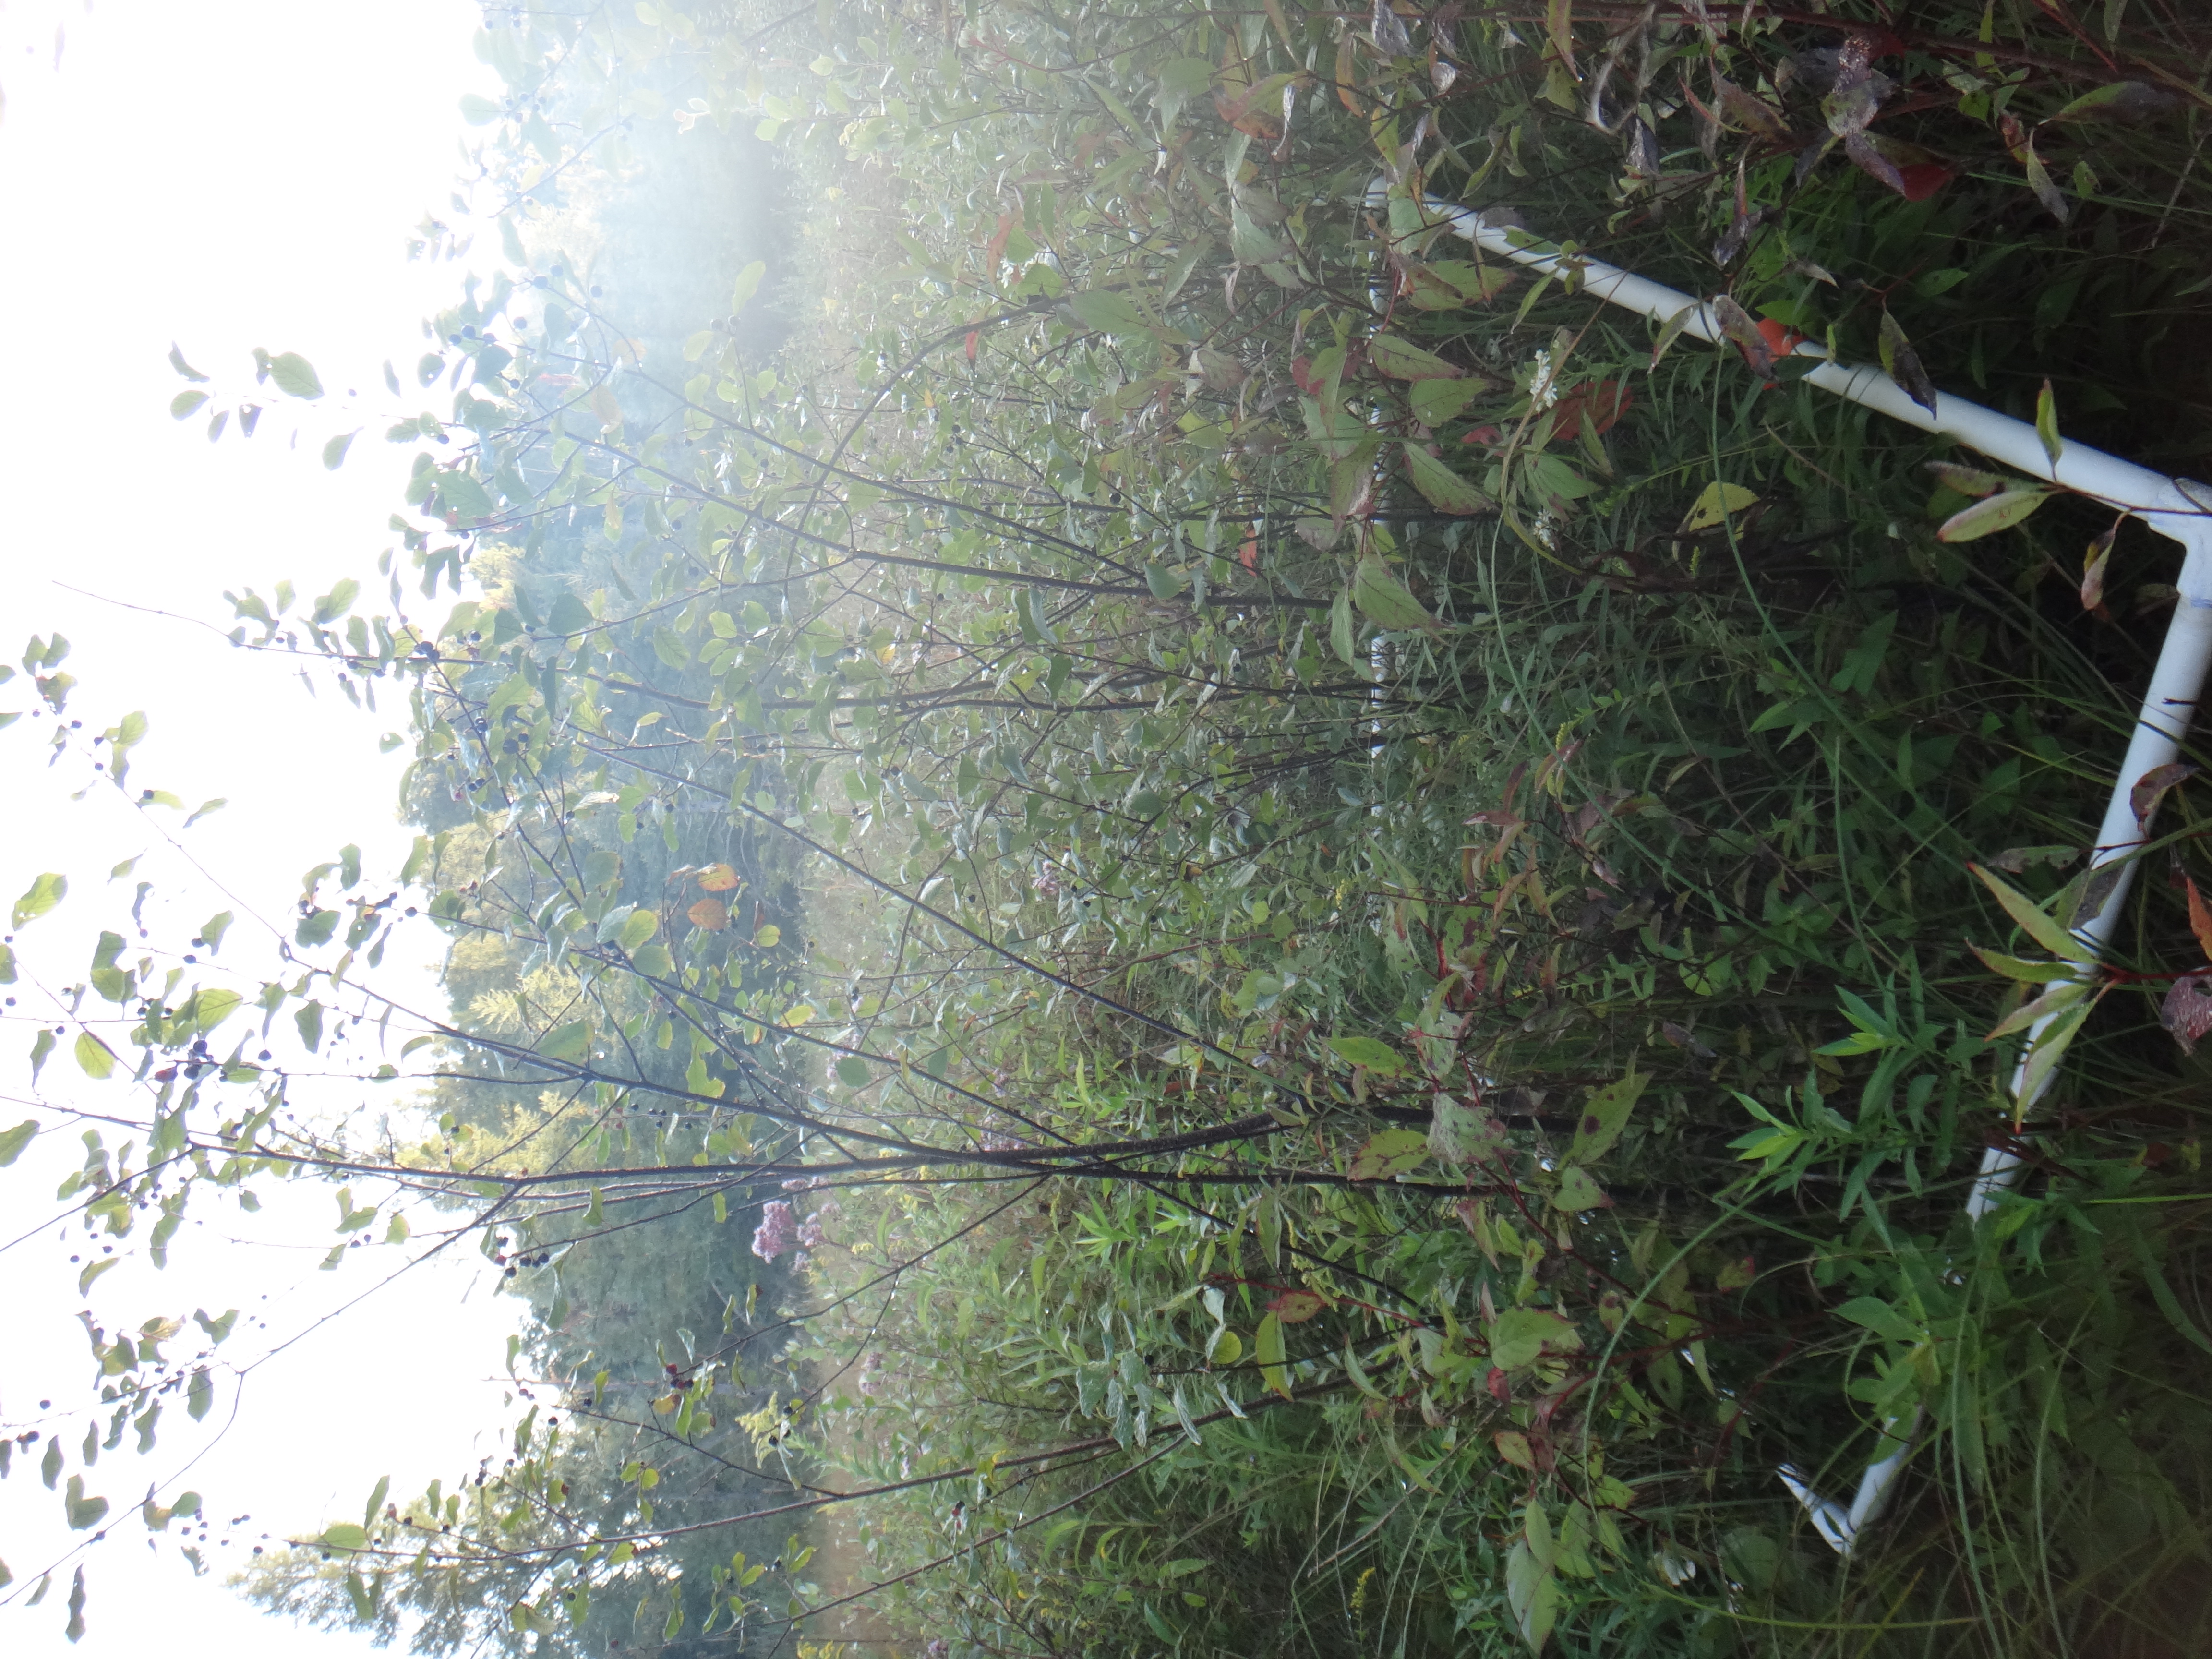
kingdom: Plantae
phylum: Tracheophyta
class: Magnoliopsida
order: Cornales
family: Cornaceae
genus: Cornus
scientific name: Cornus foemina
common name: Swamp dogwood
